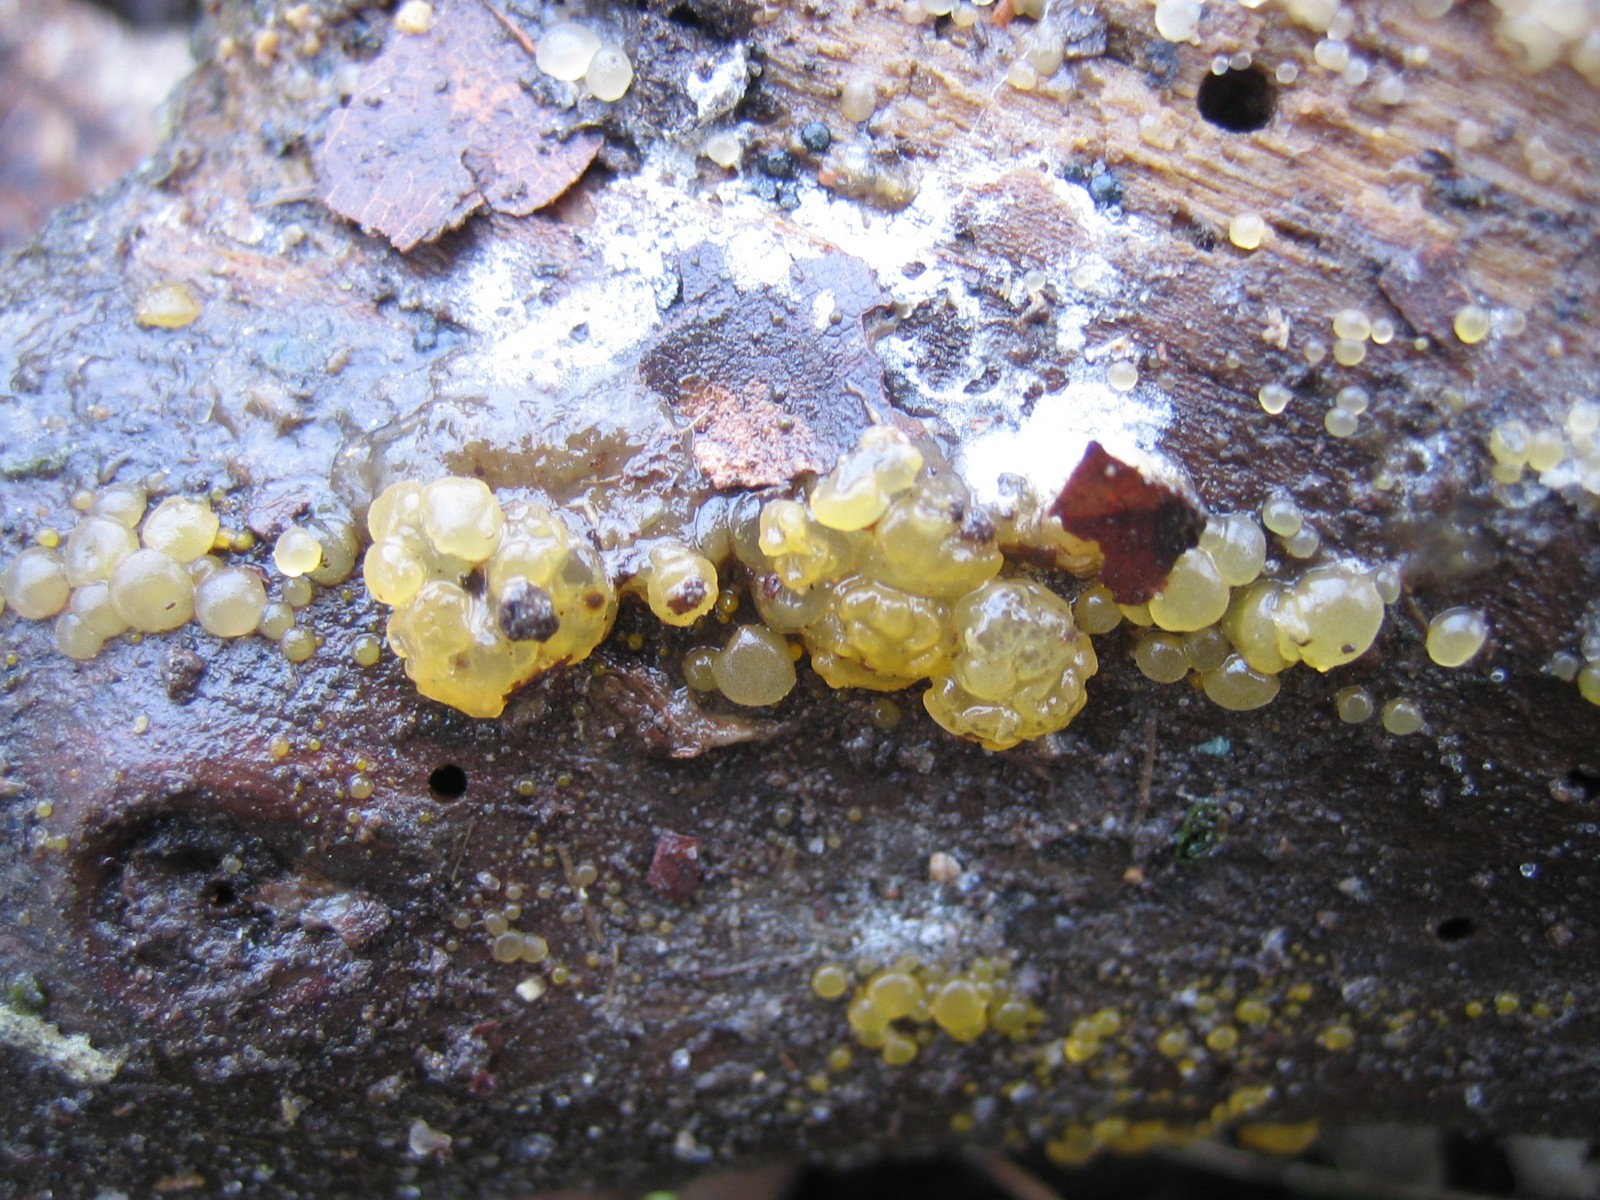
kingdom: Fungi
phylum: Basidiomycota
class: Dacrymycetes
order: Dacrymycetales
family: Dacrymycetaceae
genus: Dacrymyces
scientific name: Dacrymyces
